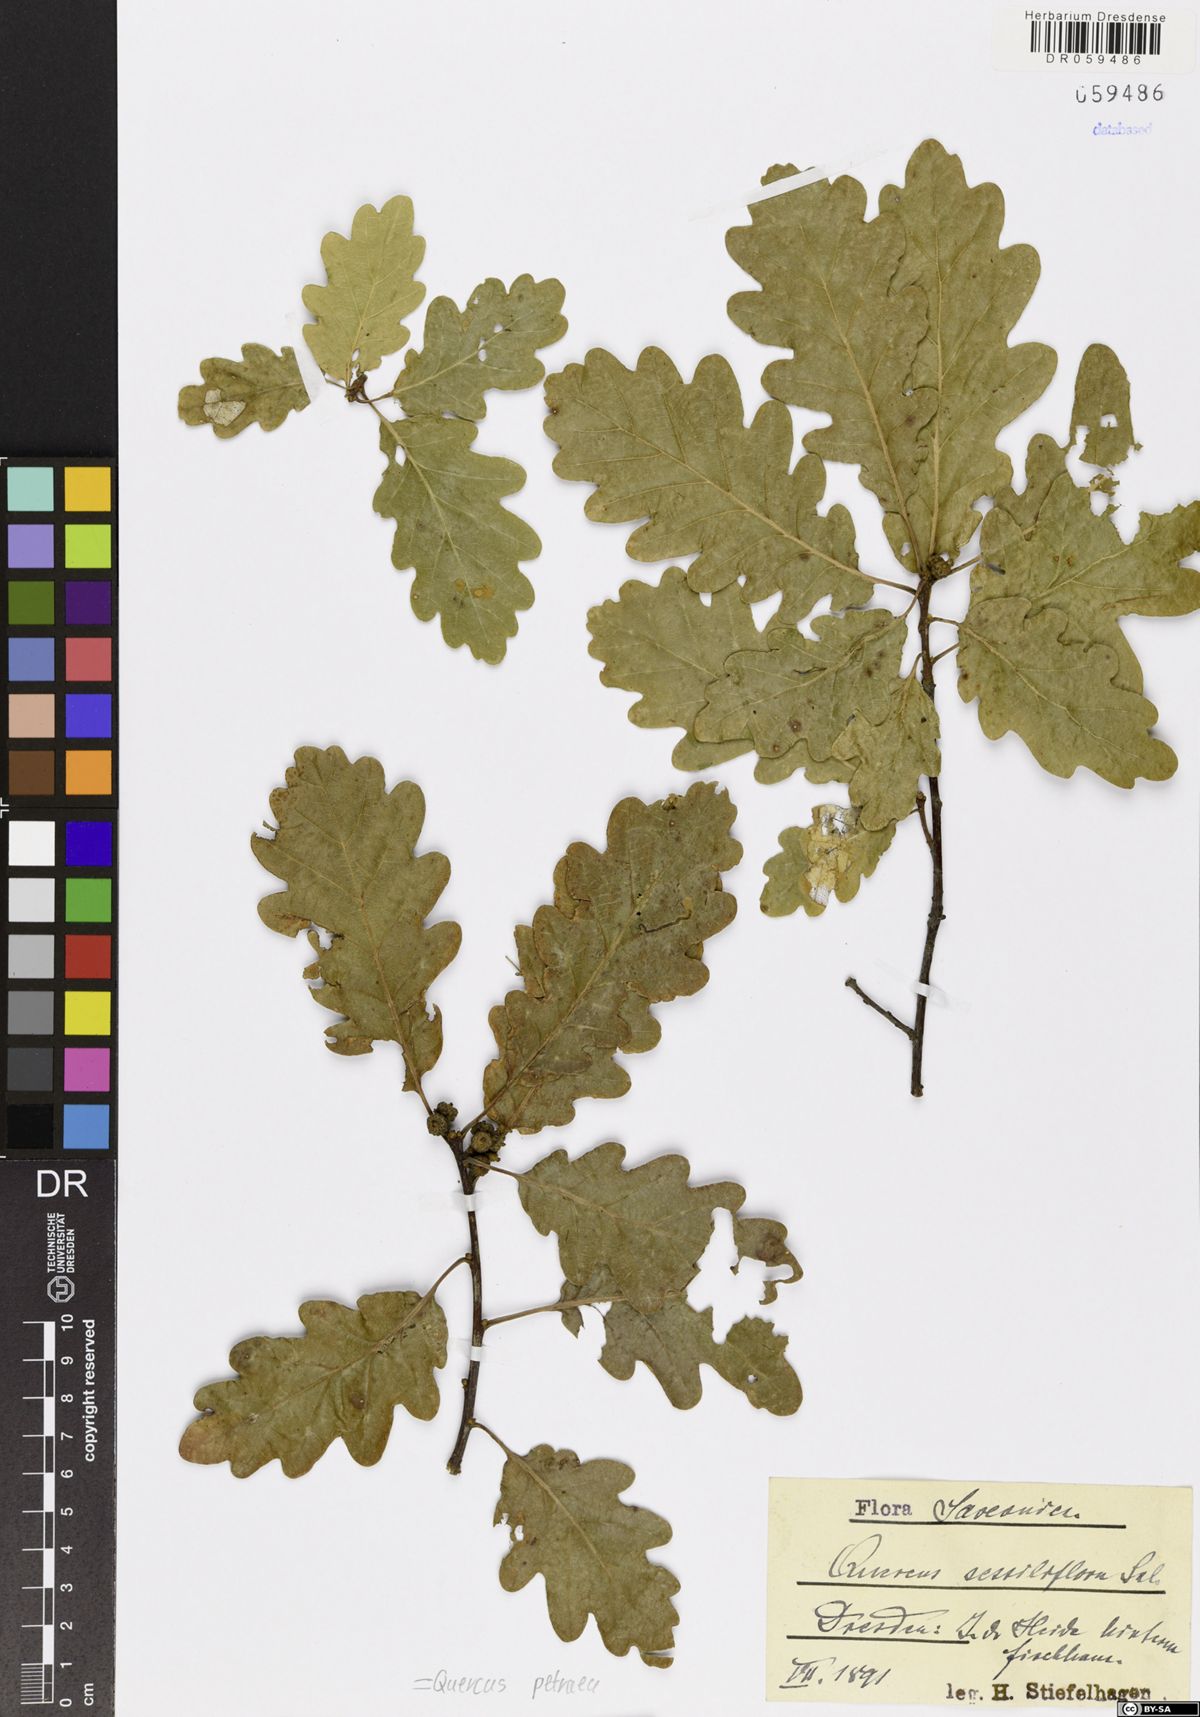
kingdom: Plantae
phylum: Tracheophyta
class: Magnoliopsida
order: Fagales
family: Fagaceae
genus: Quercus
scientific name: Quercus petraea
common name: Sessile oak
